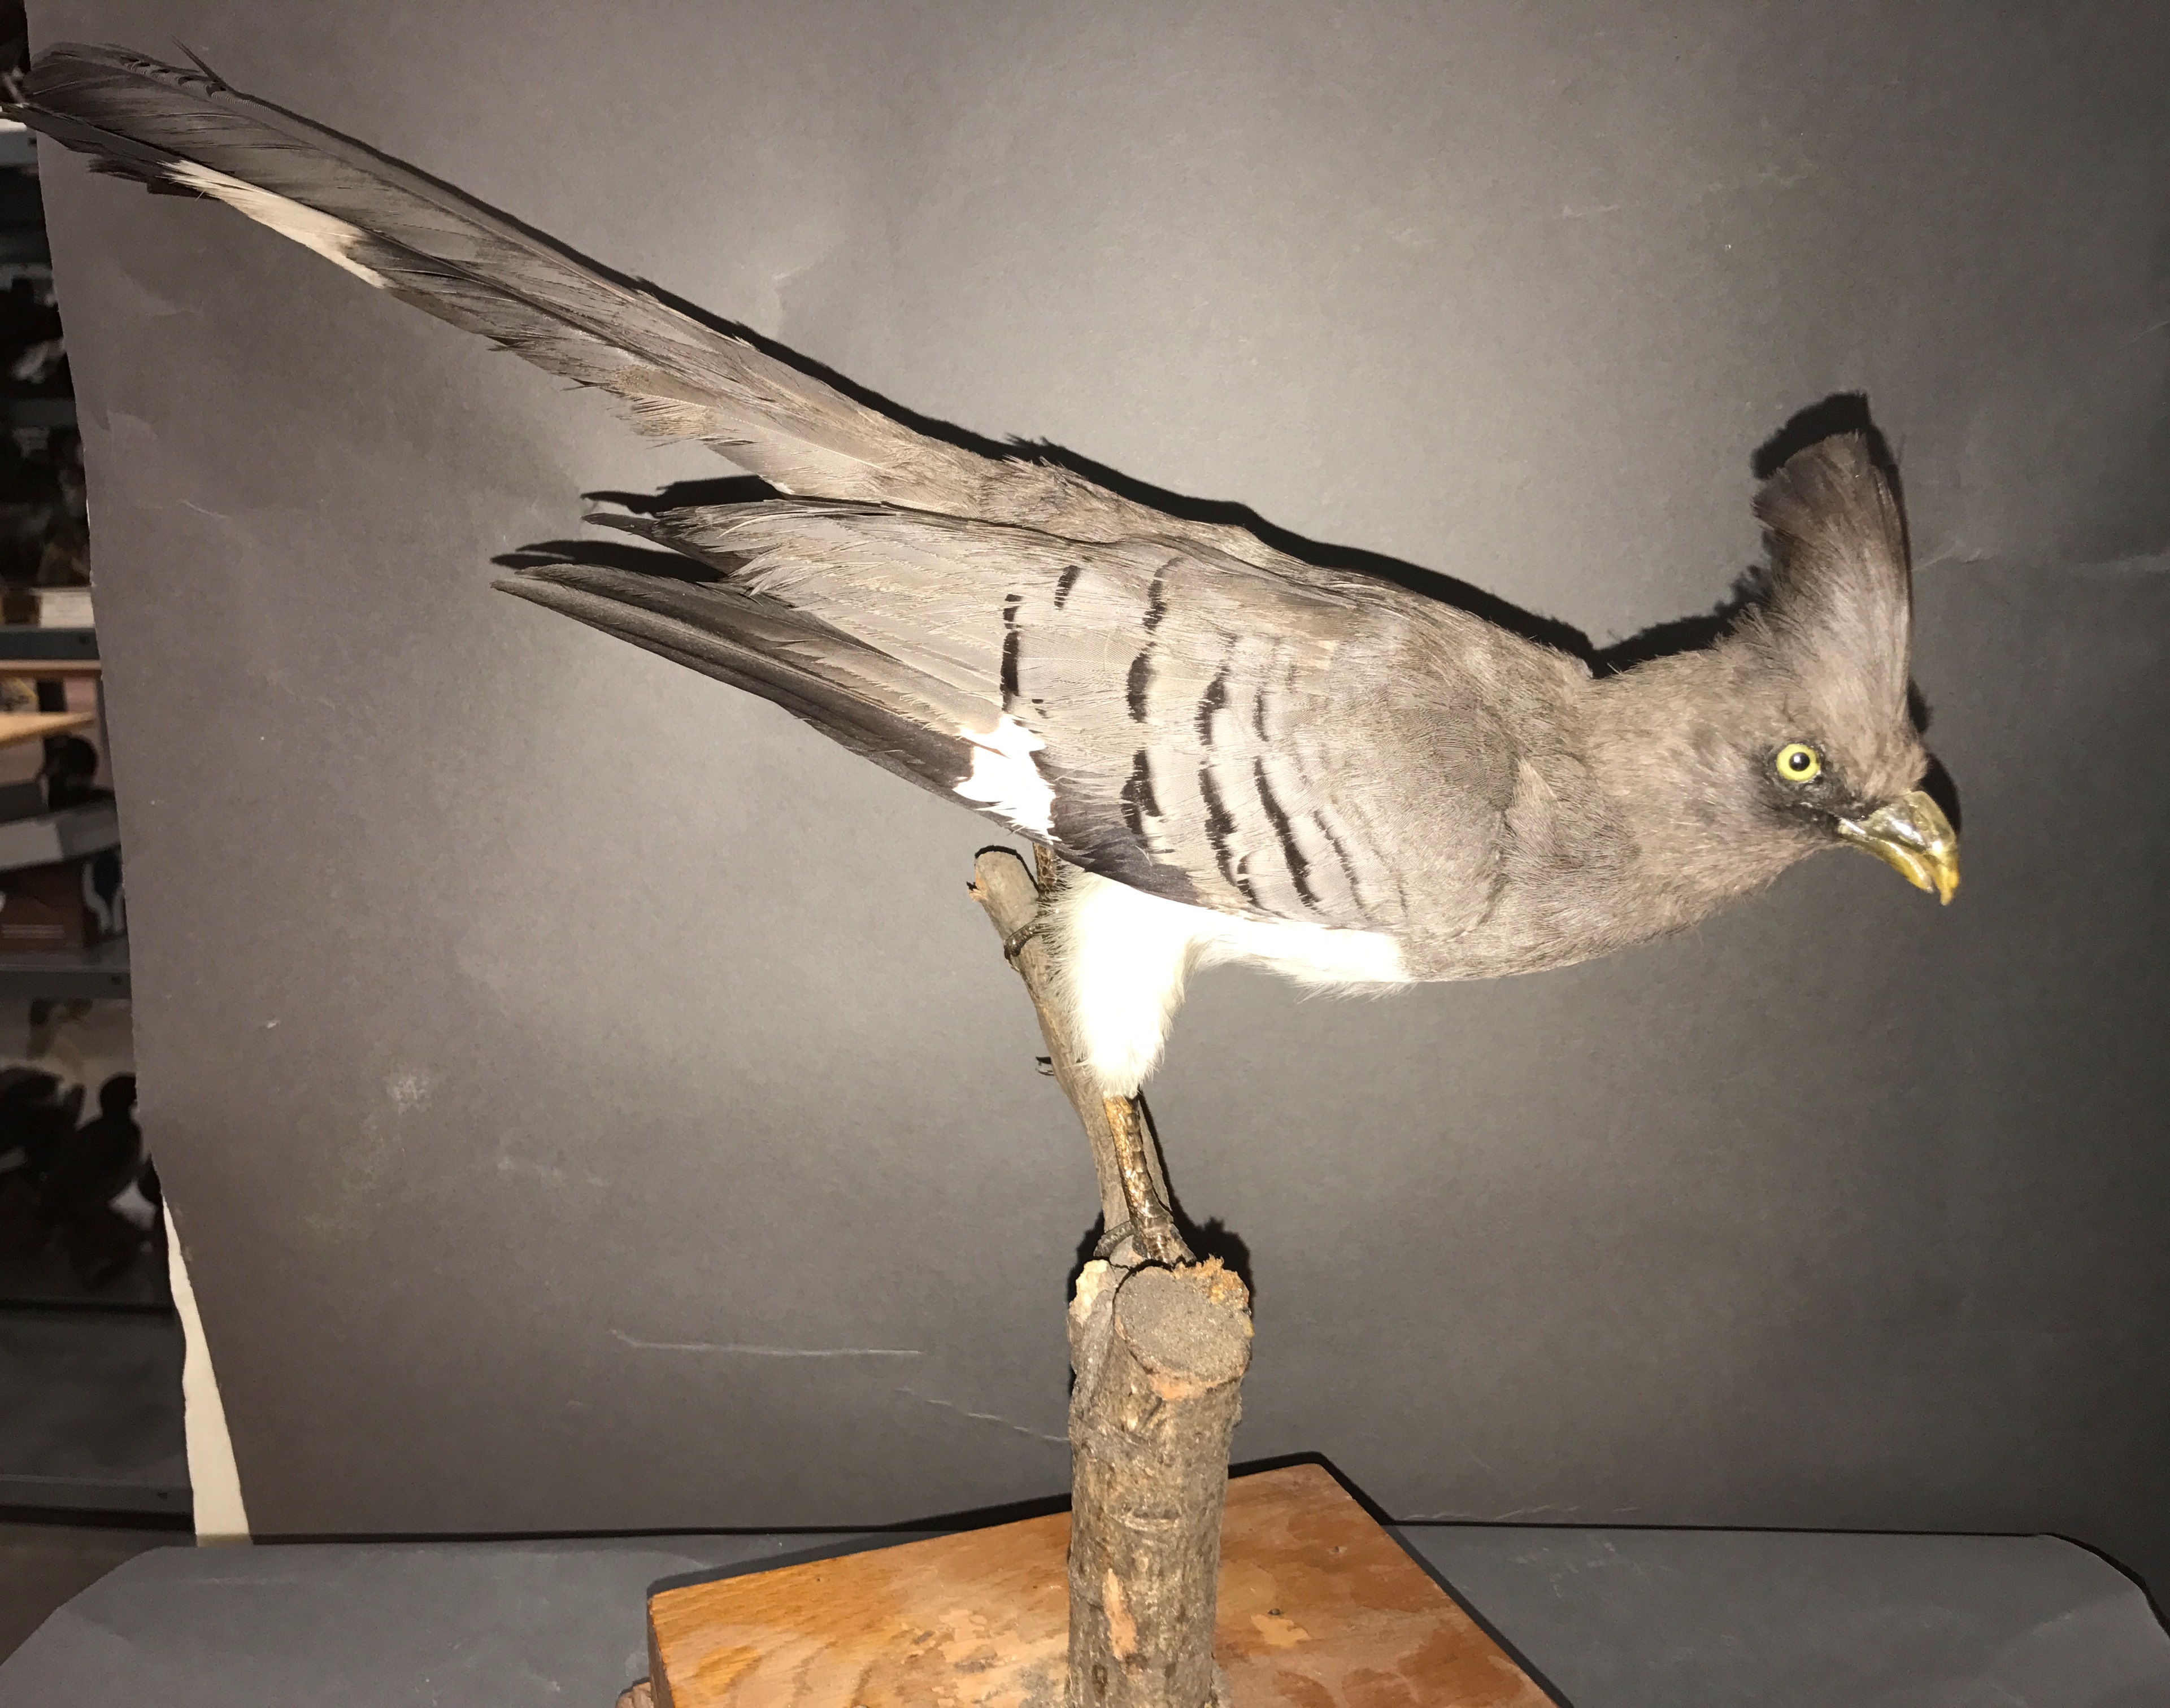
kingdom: Animalia
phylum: Chordata
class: Aves
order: Musophagiformes
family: Musophagidae
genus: Corythaixoides
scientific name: Corythaixoides leucogaster
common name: White-bellied go-away-bird
